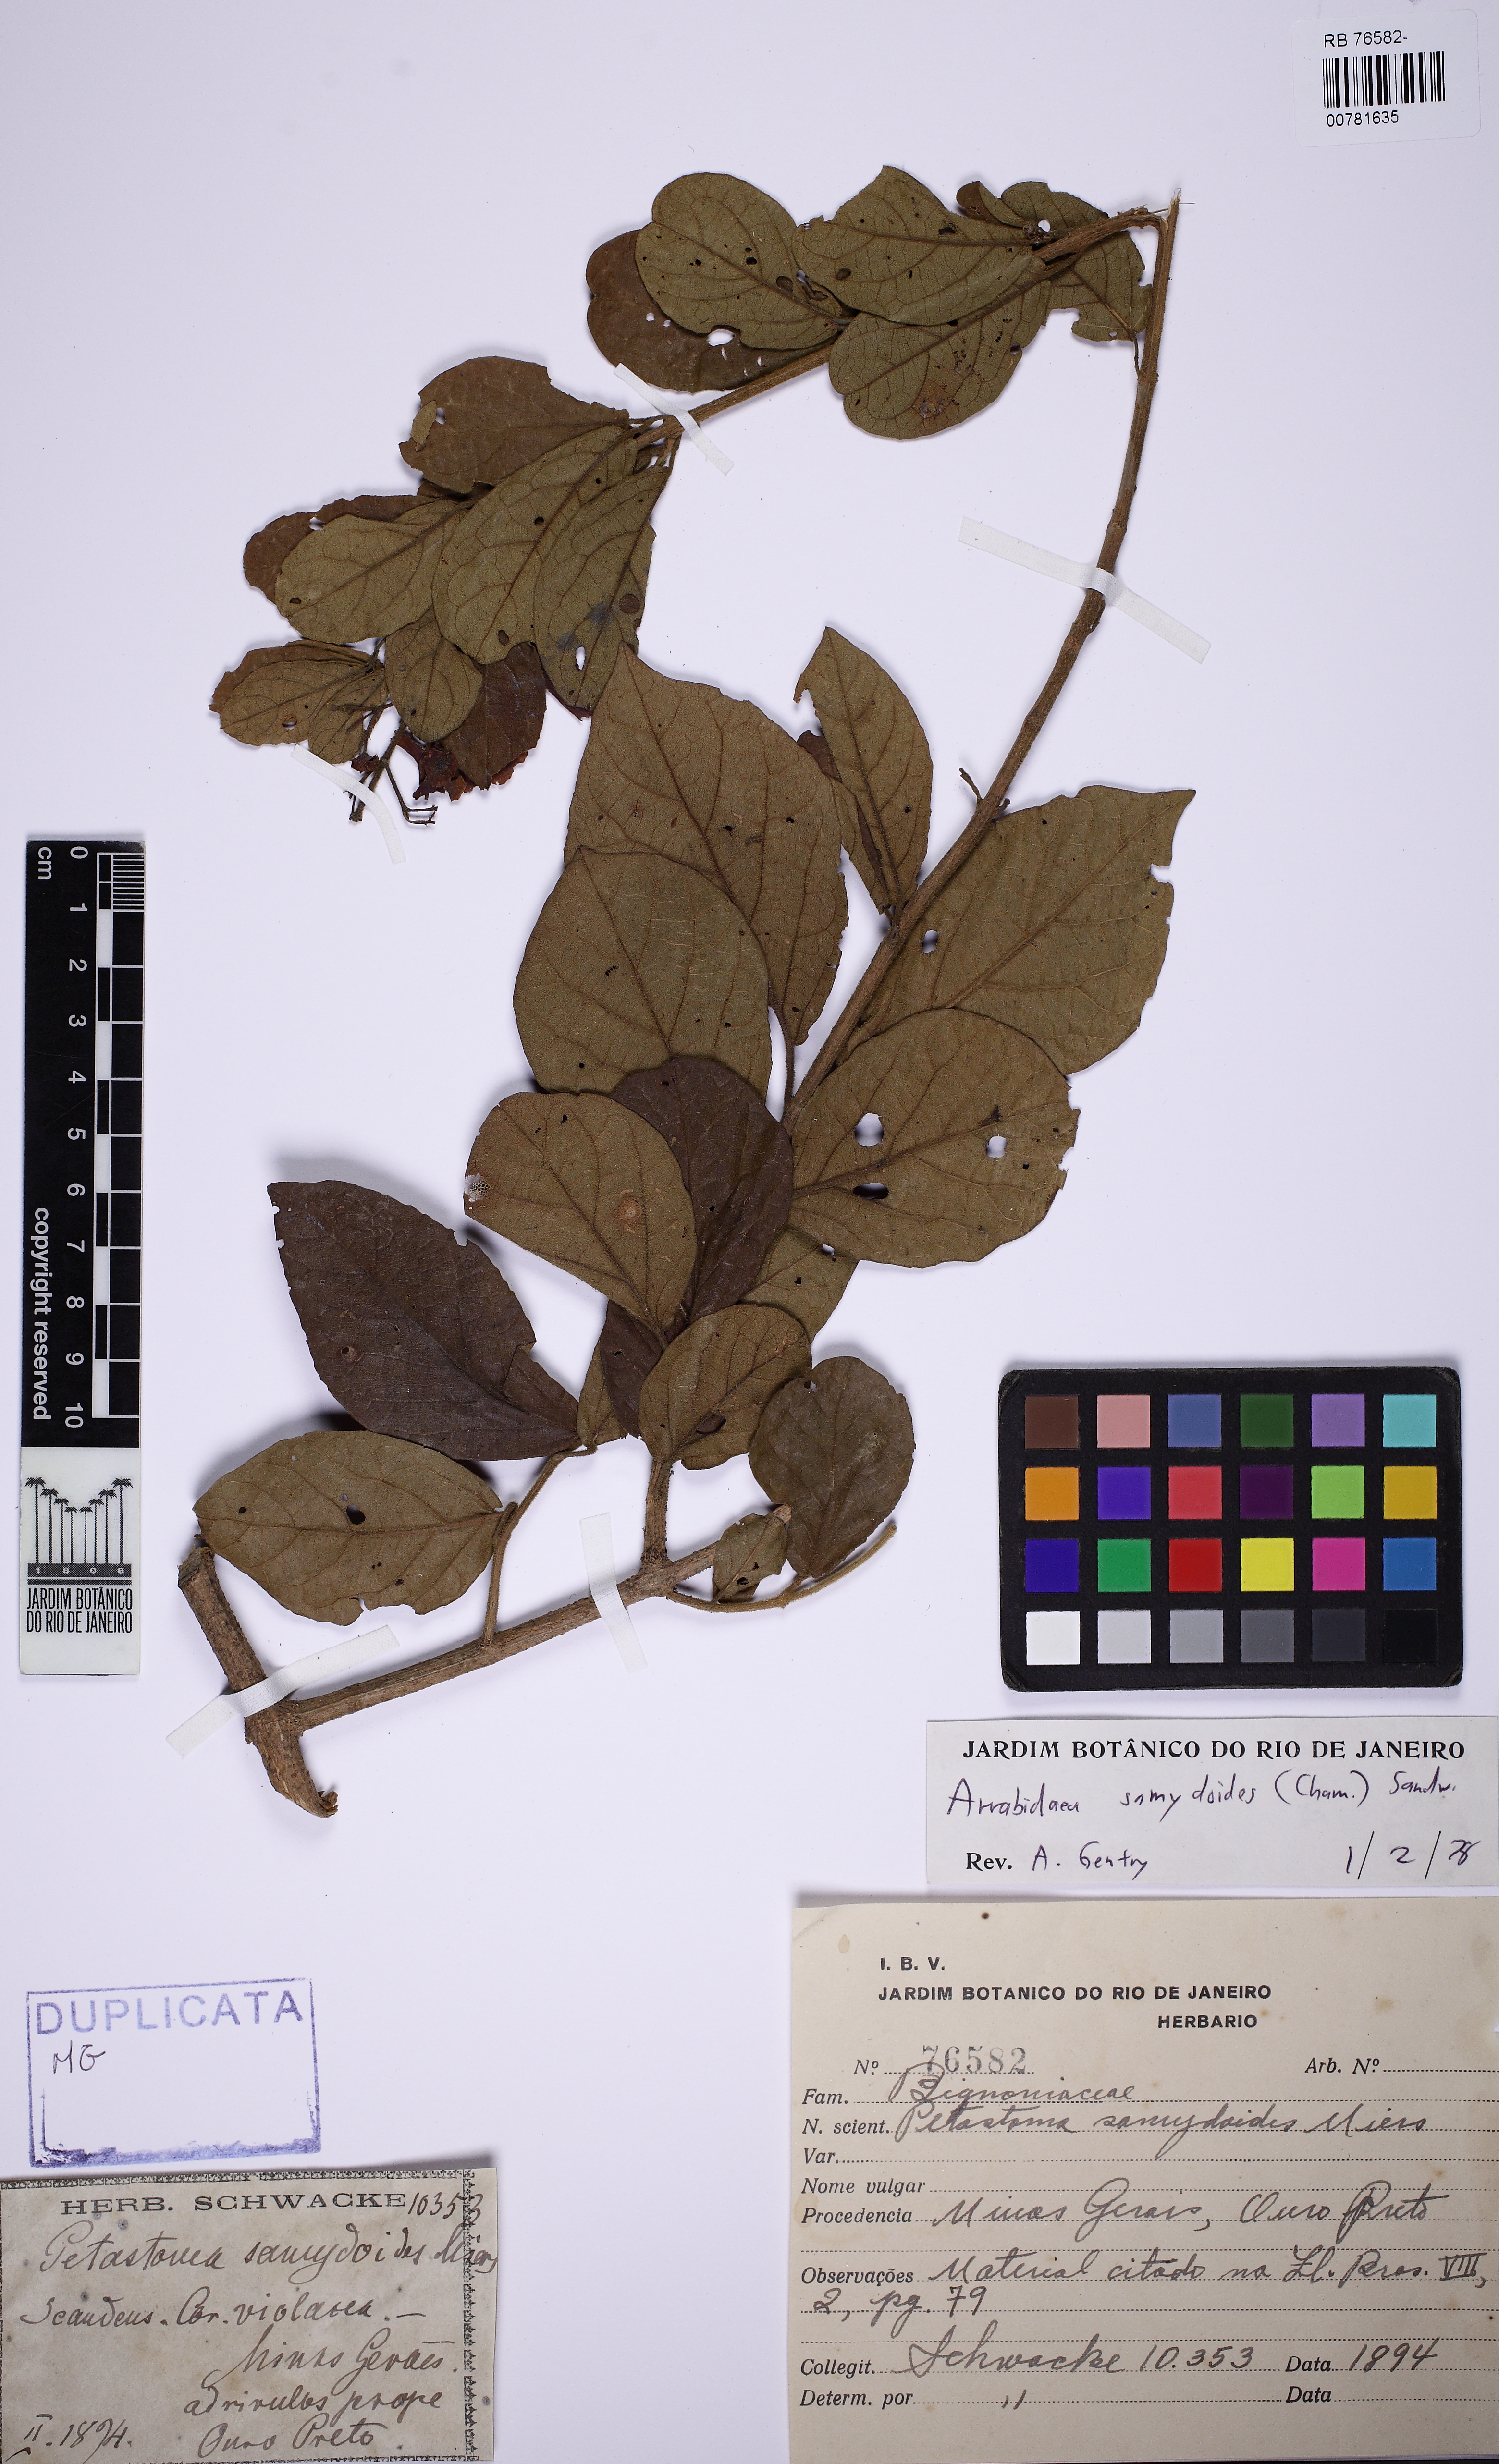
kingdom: Plantae
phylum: Tracheophyta
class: Magnoliopsida
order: Lamiales
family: Bignoniaceae
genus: Fridericia
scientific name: Fridericia samydoides
